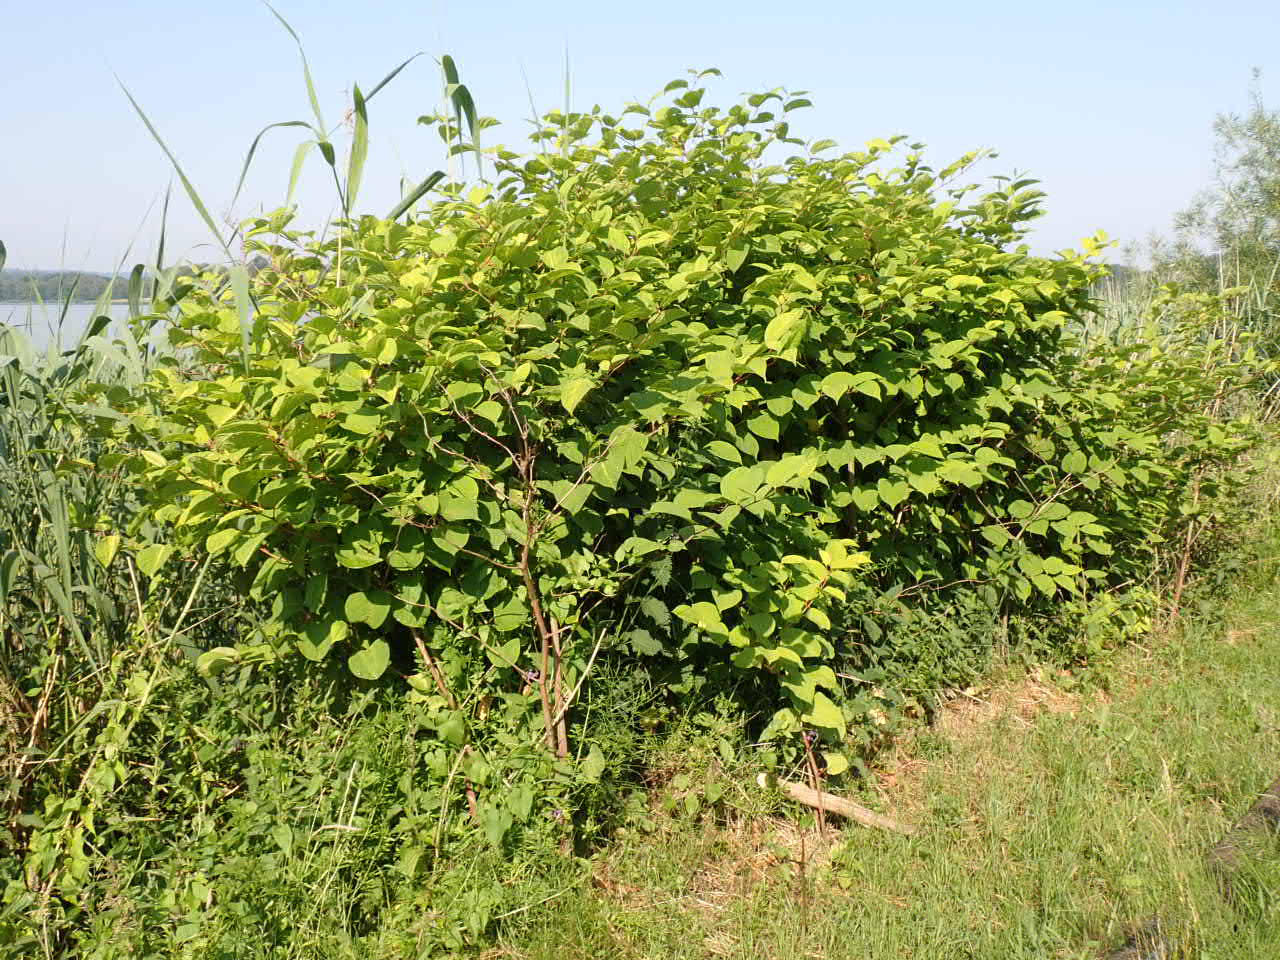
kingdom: Plantae
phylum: Tracheophyta
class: Magnoliopsida
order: Caryophyllales
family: Polygonaceae
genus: Reynoutria
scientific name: Reynoutria japonica
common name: Japan-pileurt
